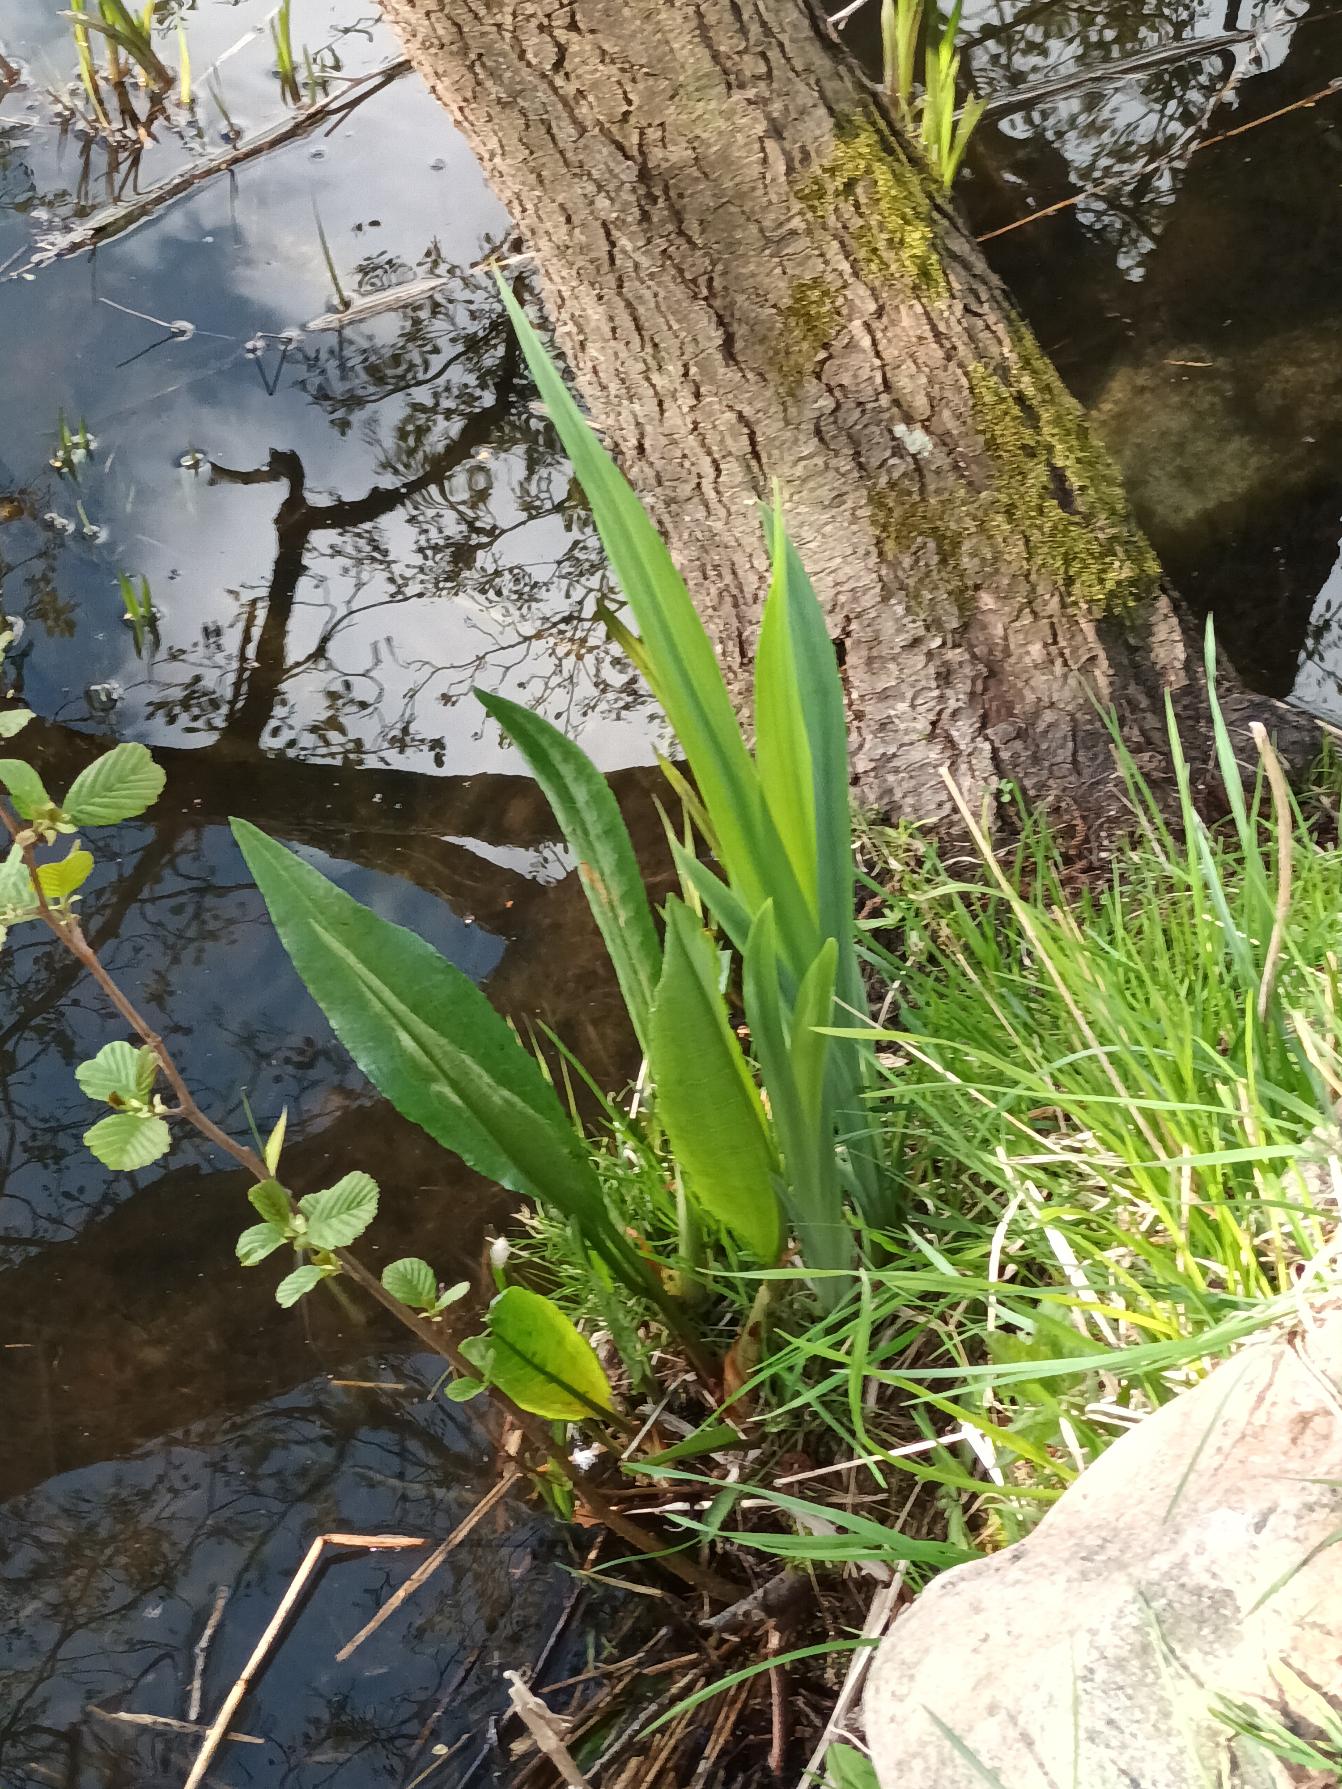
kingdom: Plantae
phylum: Tracheophyta
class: Magnoliopsida
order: Caryophyllales
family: Polygonaceae
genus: Rumex
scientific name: Rumex hydrolapathum
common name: Vand-skræppe
